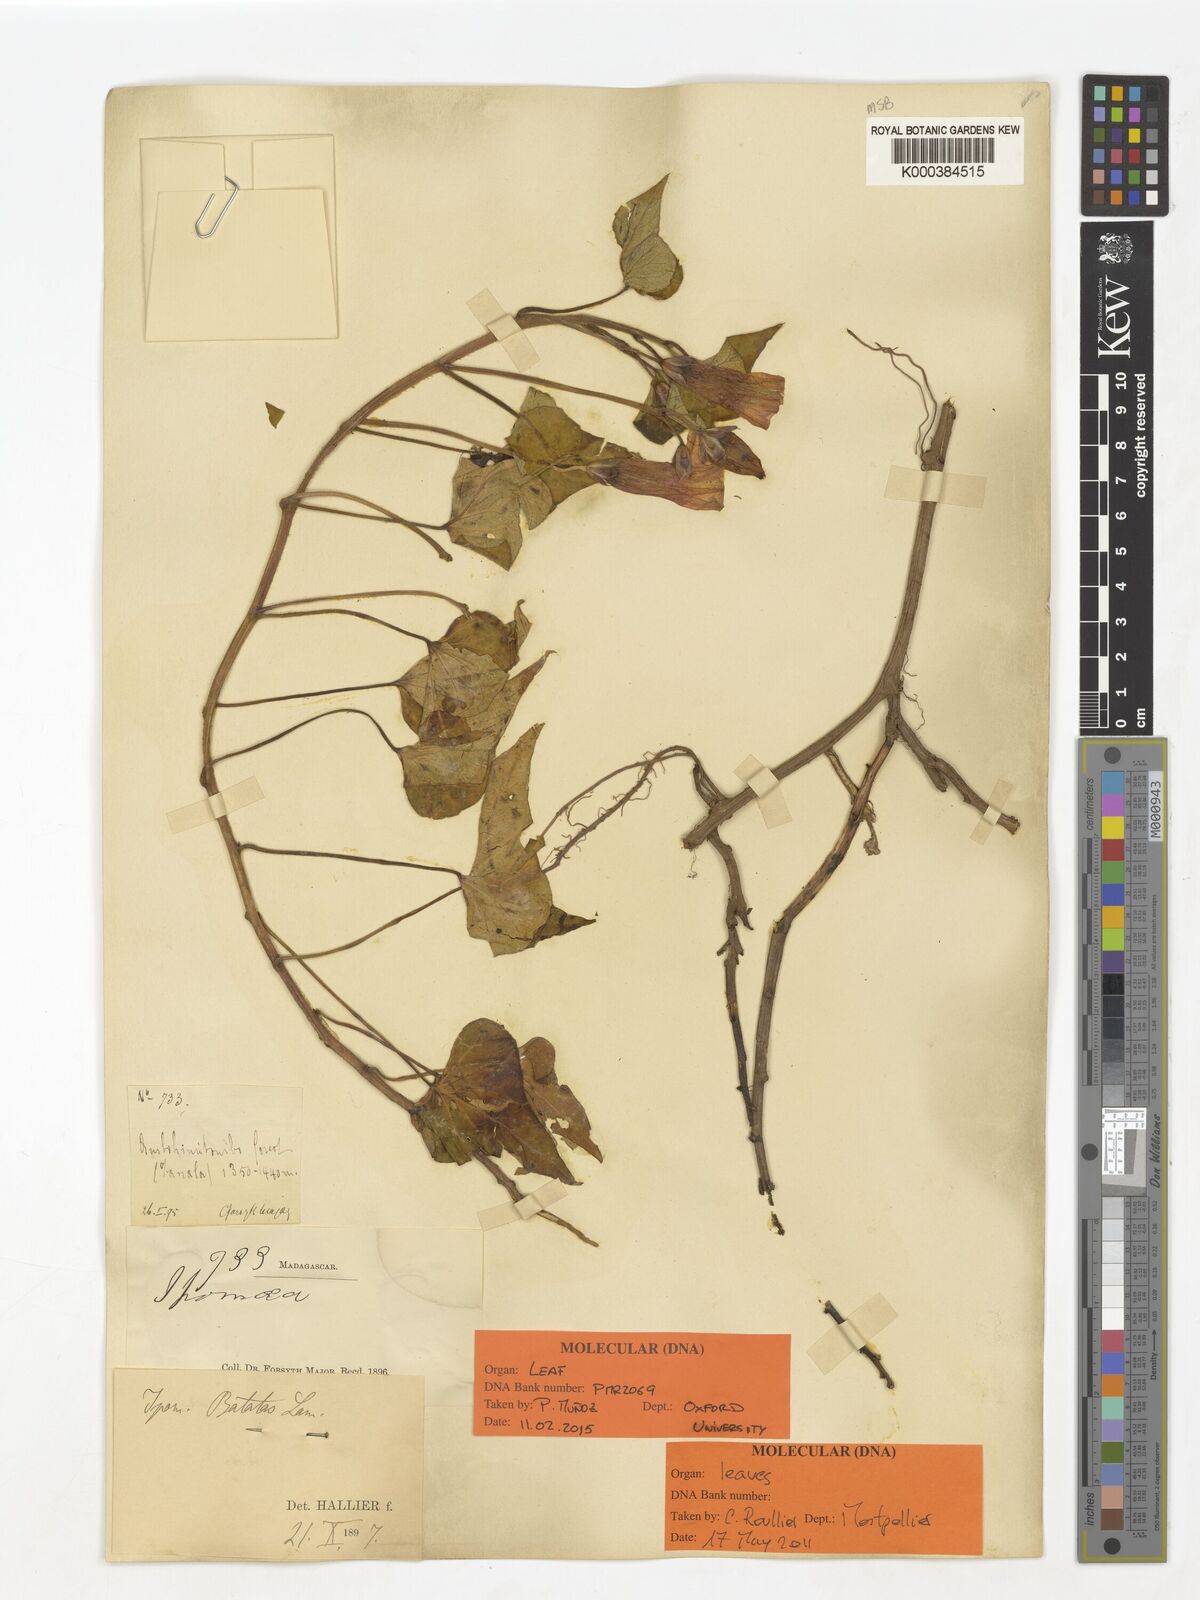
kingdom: Plantae
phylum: Tracheophyta
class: Magnoliopsida
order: Solanales
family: Convolvulaceae
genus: Ipomoea
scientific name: Ipomoea
